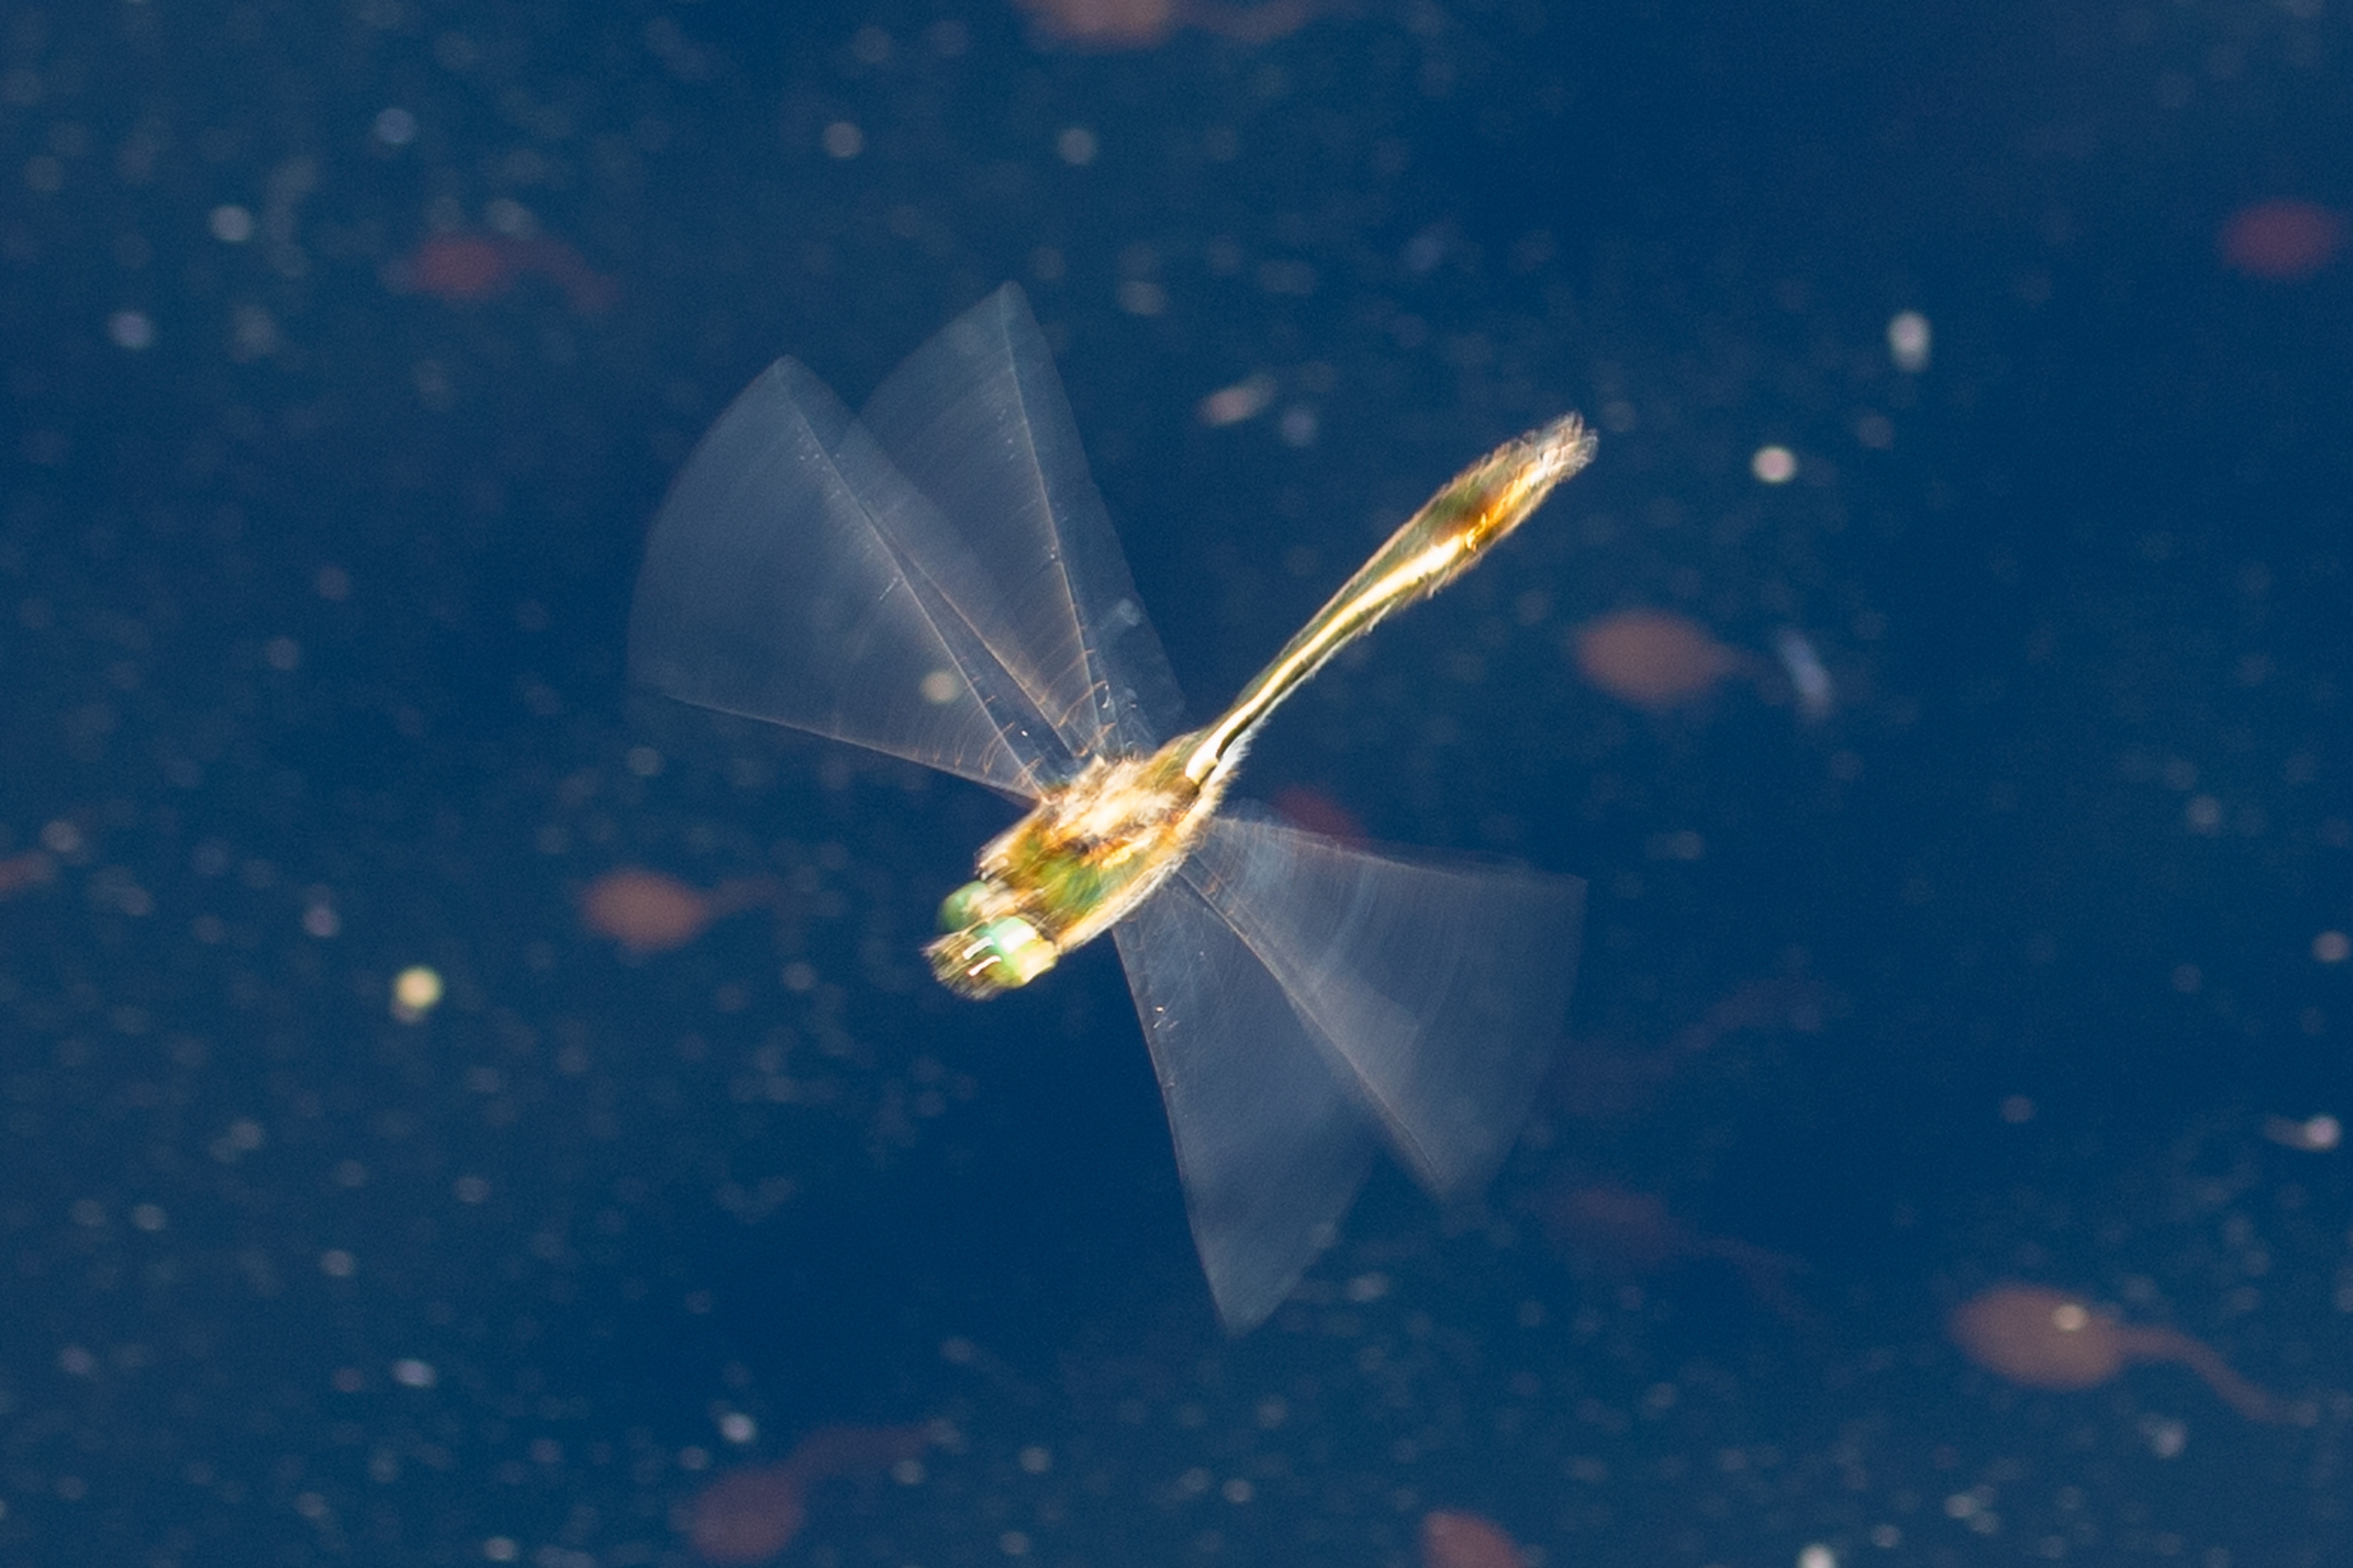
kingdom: Animalia
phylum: Arthropoda
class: Insecta
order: Odonata
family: Corduliidae
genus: Cordulia
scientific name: Cordulia aenea
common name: Grøn smaragdlibel
